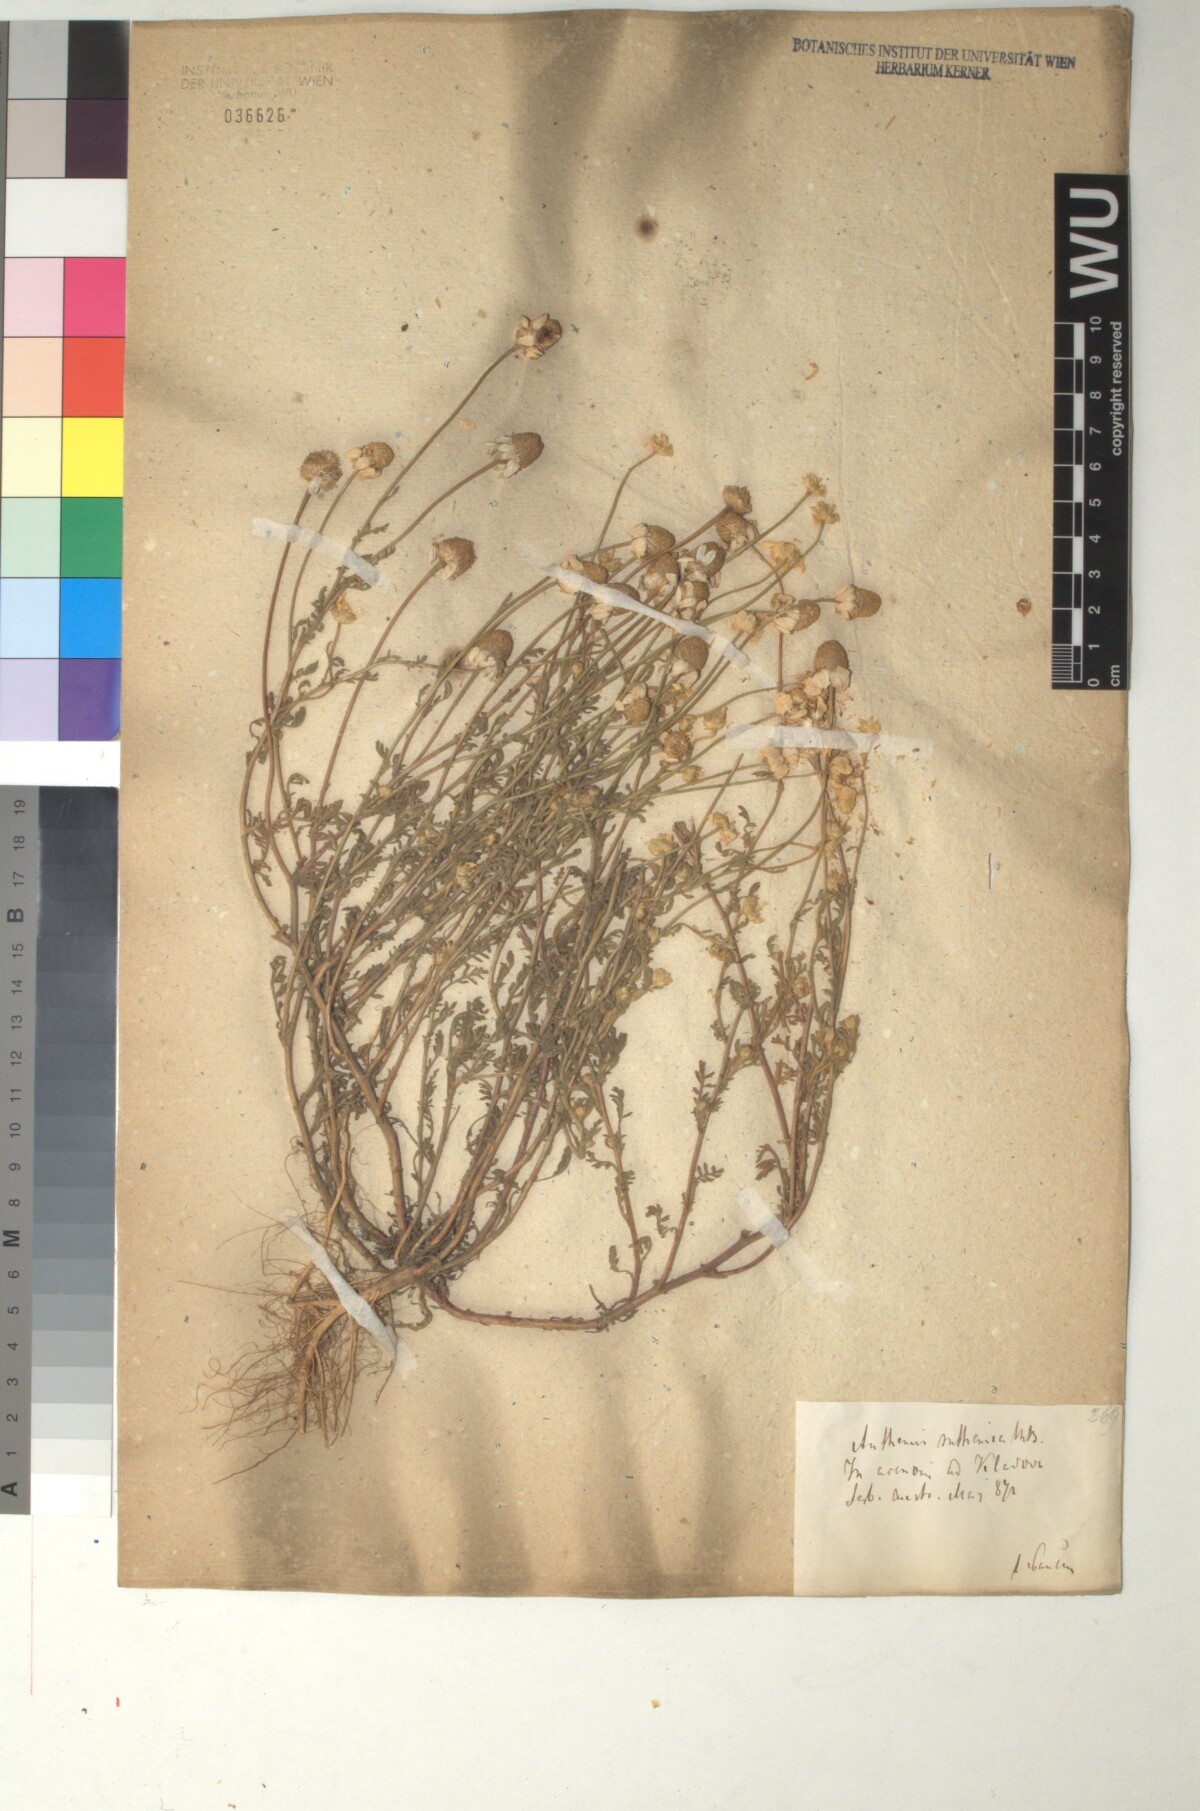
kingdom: Plantae
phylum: Tracheophyta
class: Magnoliopsida
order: Asterales
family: Asteraceae
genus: Anthemis
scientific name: Anthemis ruthenica
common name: Eastern chamomile
